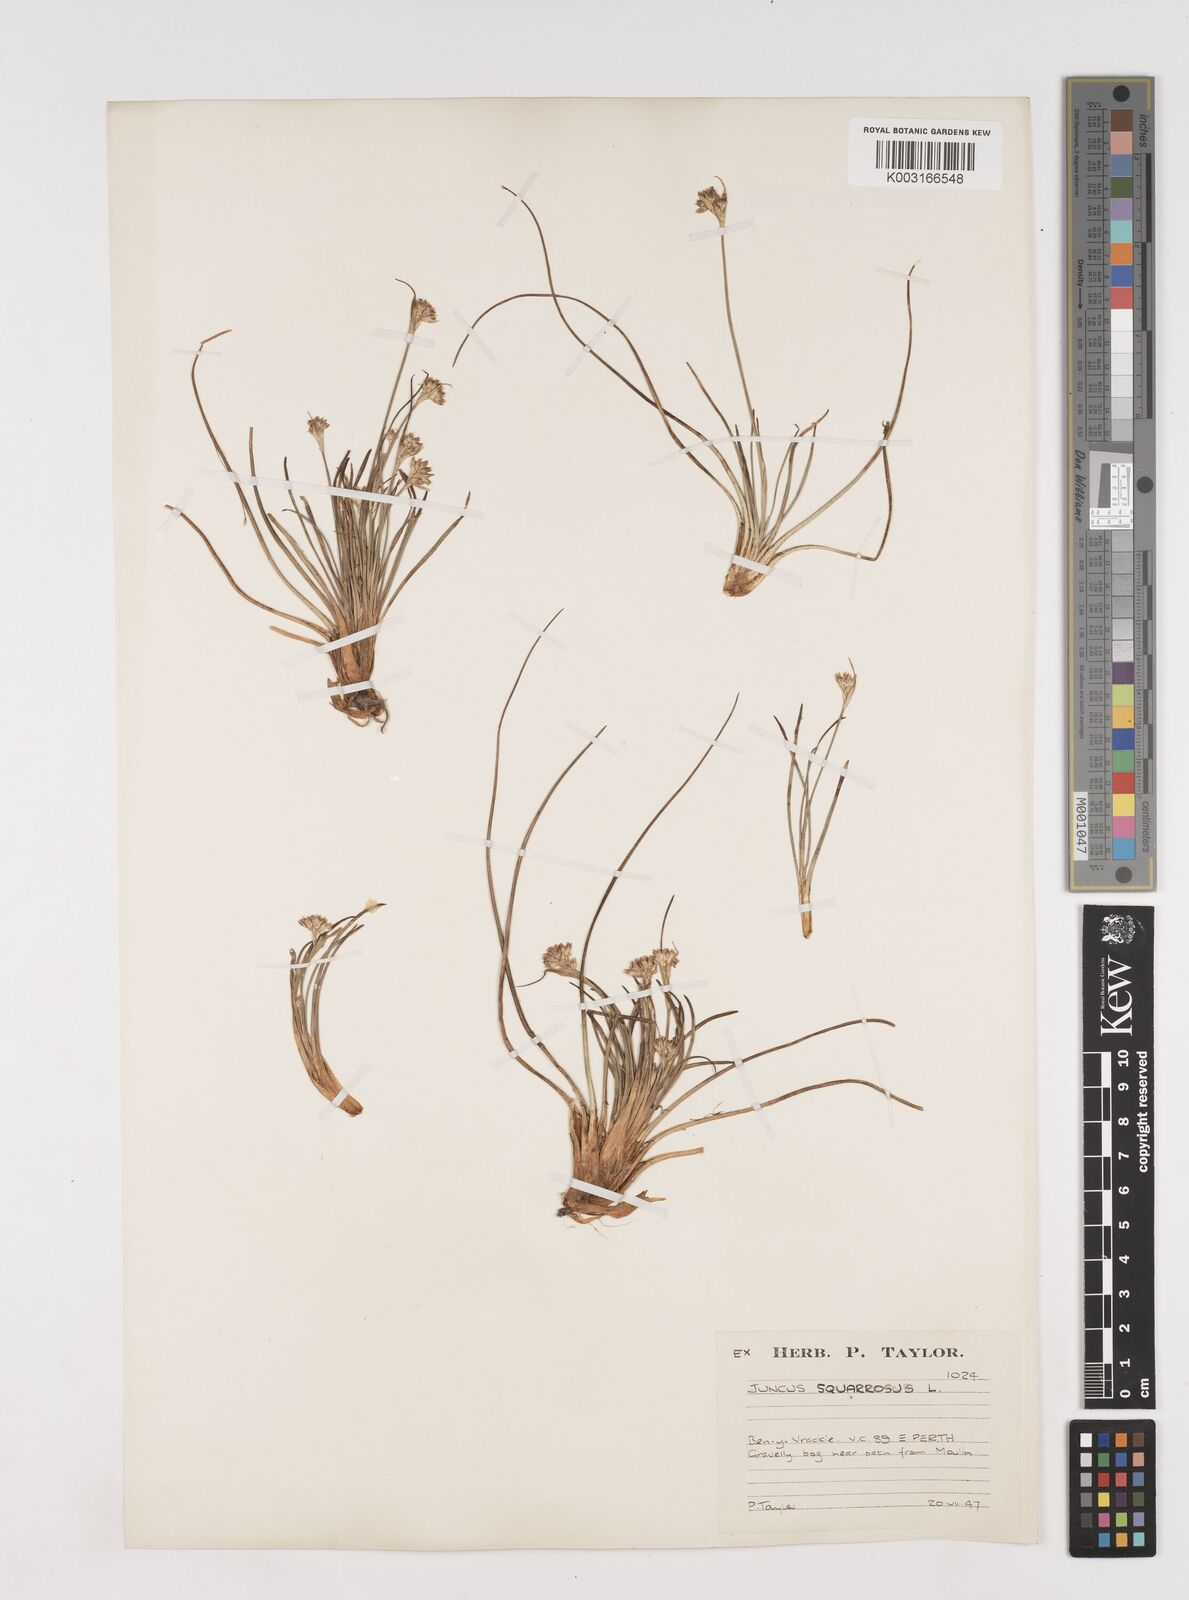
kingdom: Plantae
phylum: Tracheophyta
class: Liliopsida
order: Poales
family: Juncaceae
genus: Juncus
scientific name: Juncus squarrosus
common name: Heath rush
